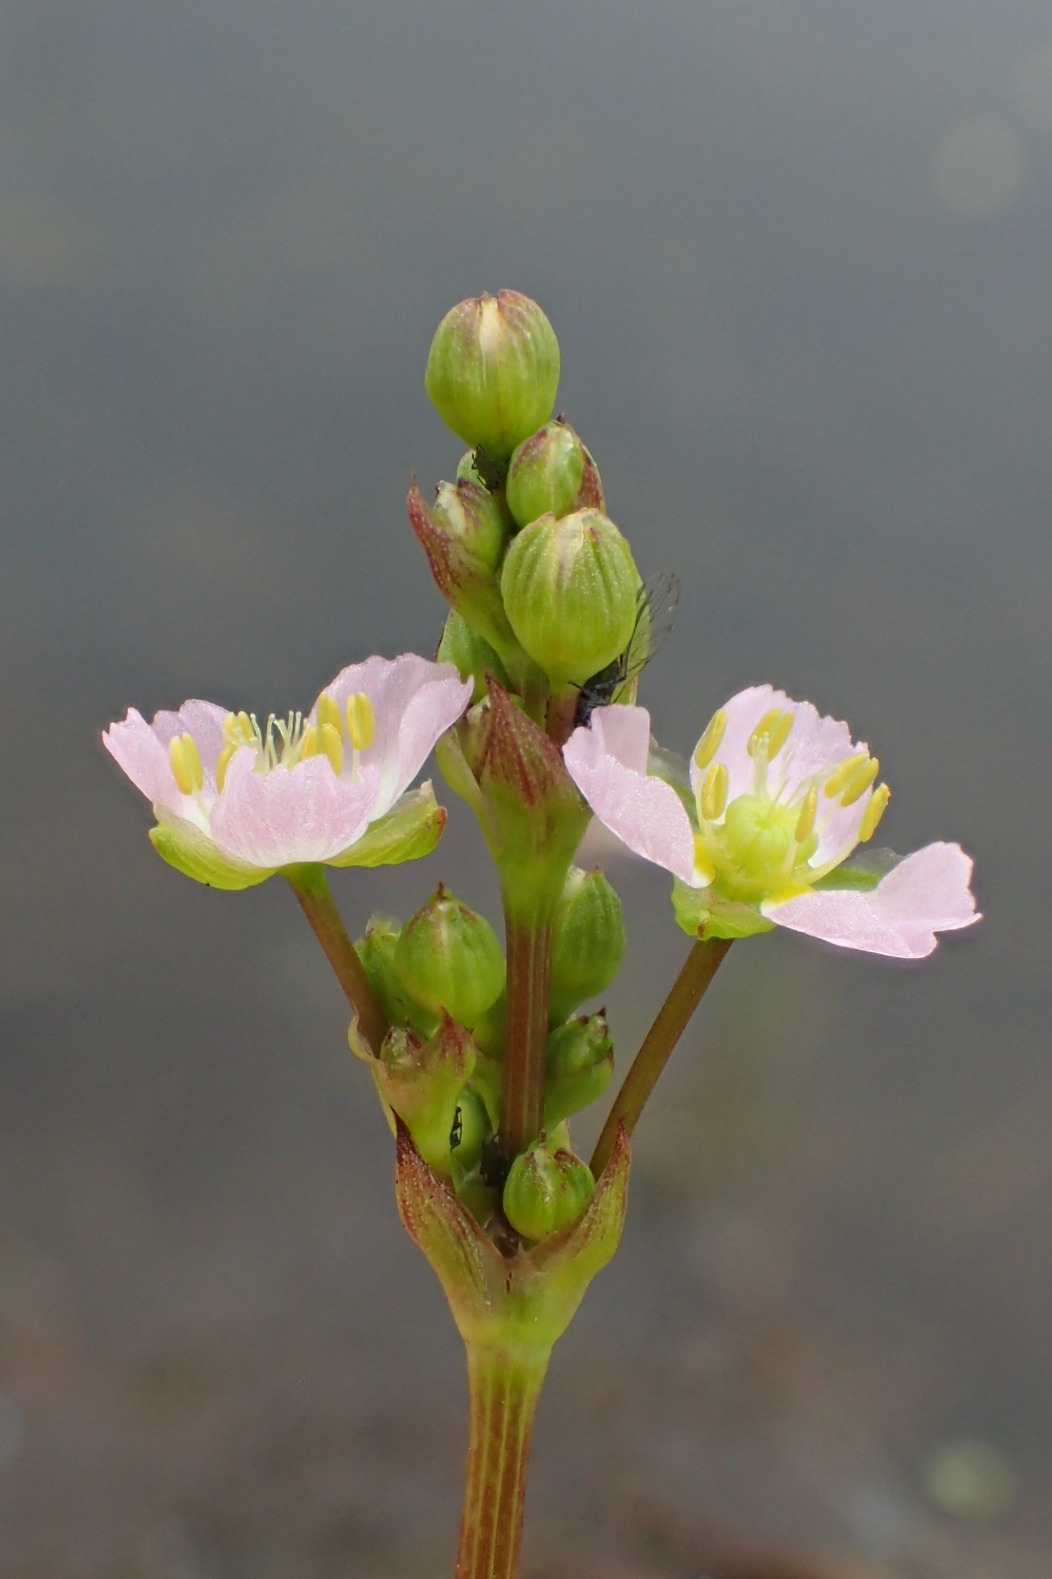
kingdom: Plantae
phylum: Tracheophyta
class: Liliopsida
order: Alismatales
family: Alismataceae
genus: Alisma
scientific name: Alisma plantago-aquatica
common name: Vejbred-skeblad
